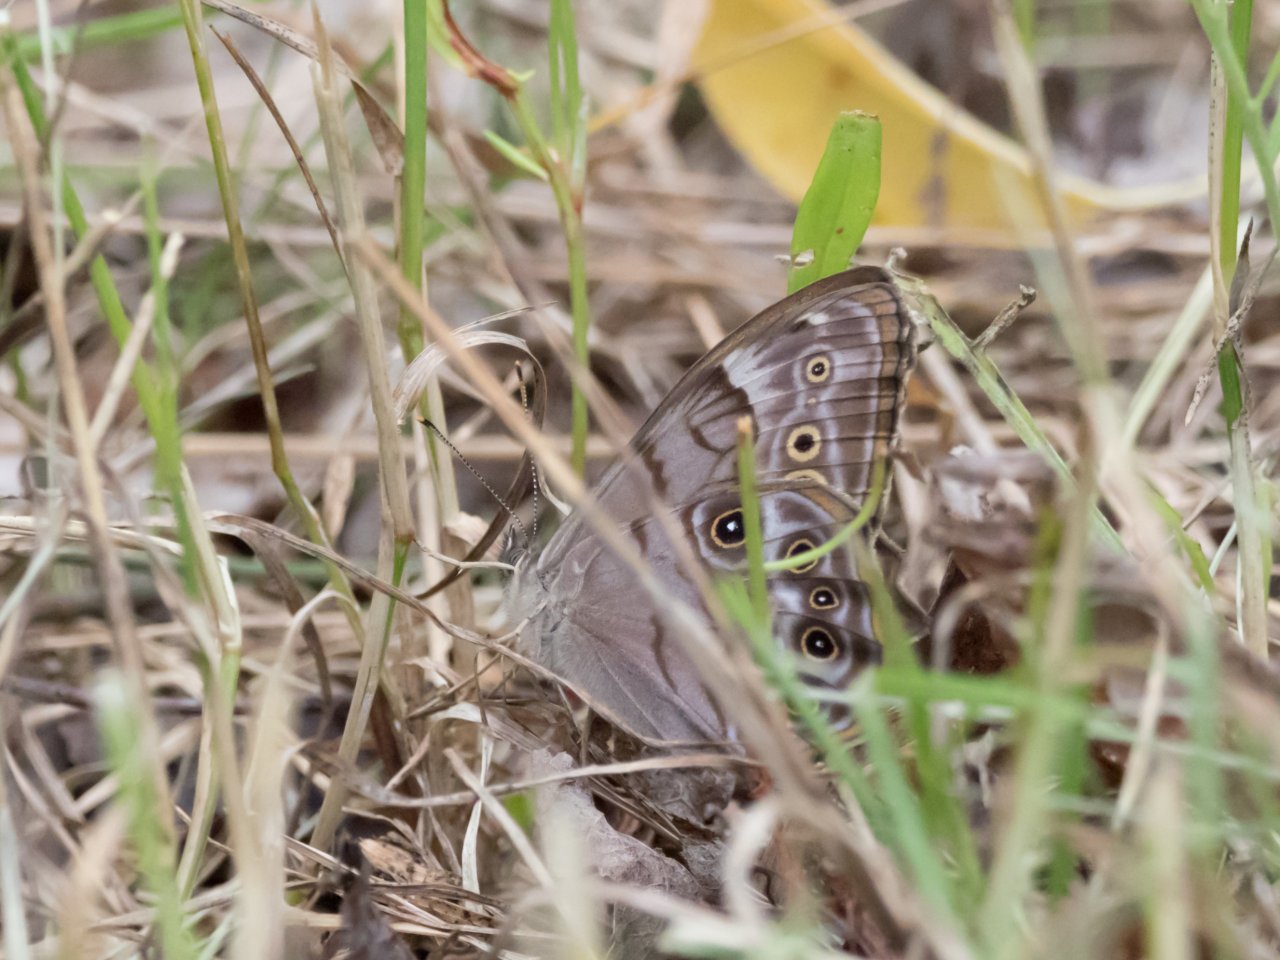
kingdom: Animalia
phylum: Arthropoda
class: Insecta
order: Lepidoptera
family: Nymphalidae
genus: Lethe
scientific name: Lethe anthedon
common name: Northern Pearly-Eye
